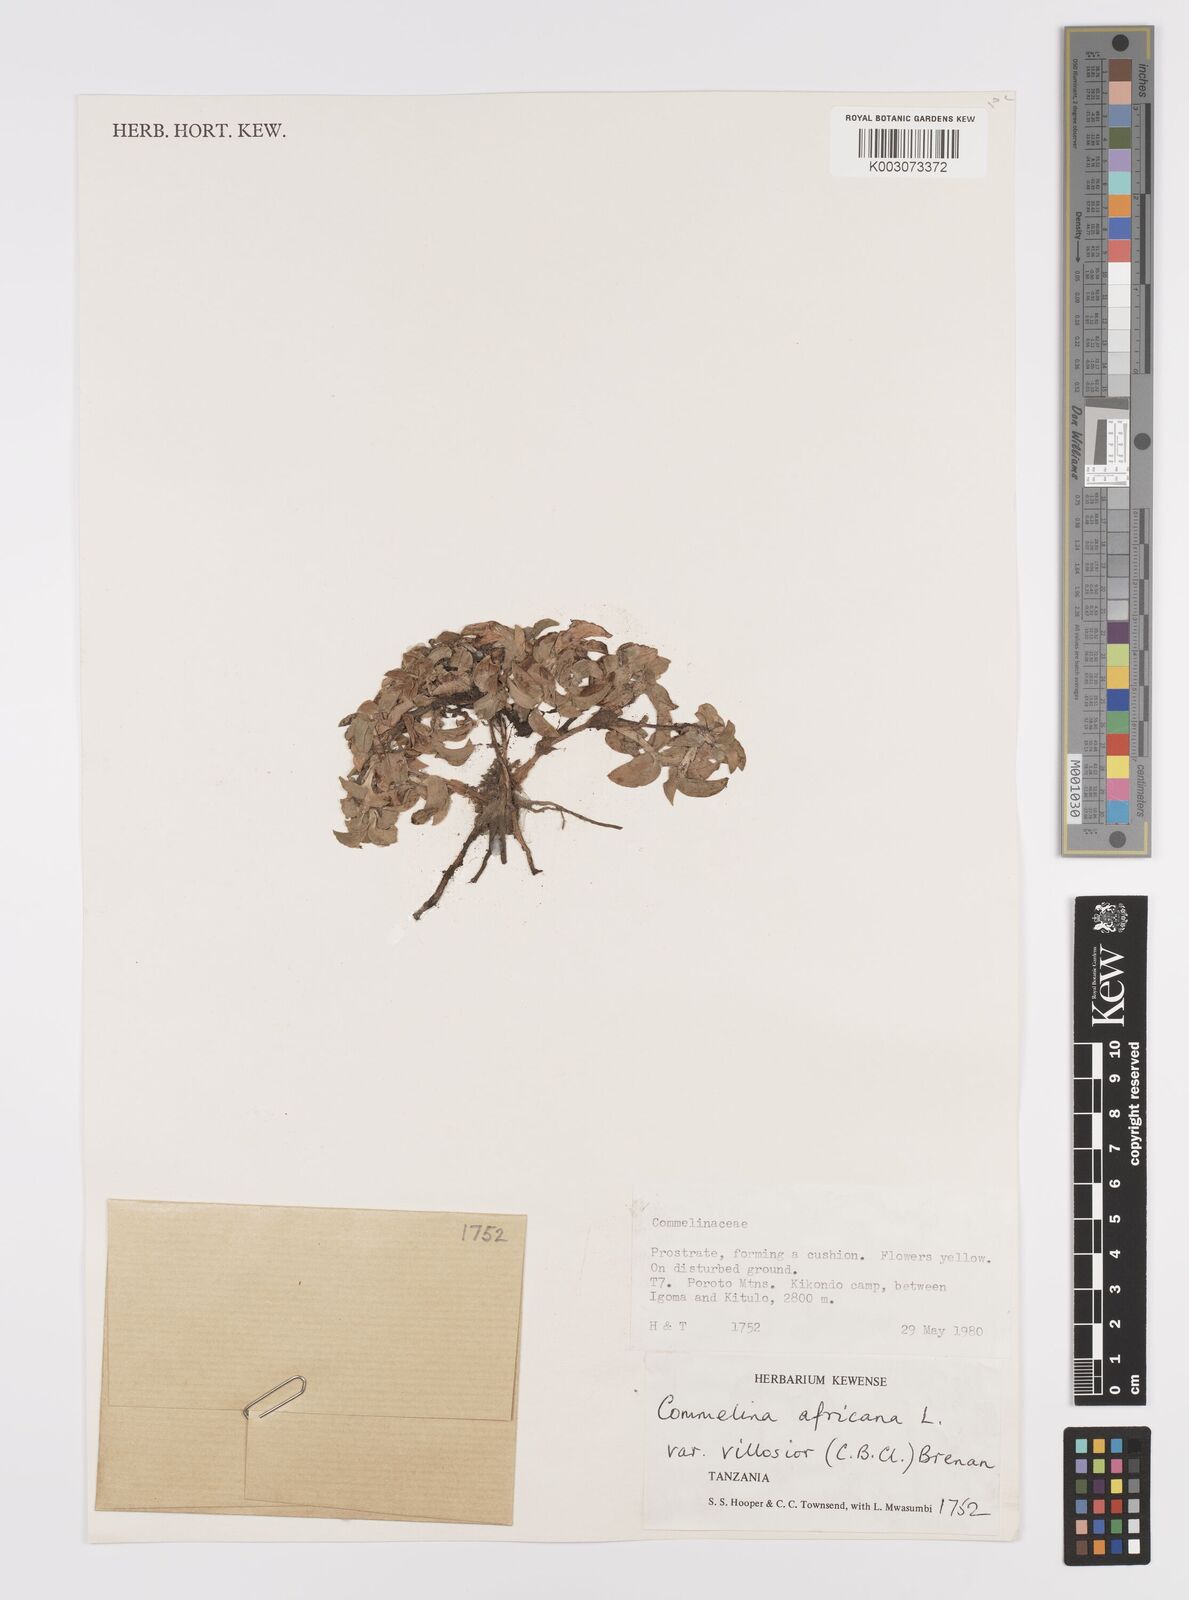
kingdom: Plantae
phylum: Tracheophyta
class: Liliopsida
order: Commelinales
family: Commelinaceae
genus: Commelina
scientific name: Commelina africana
